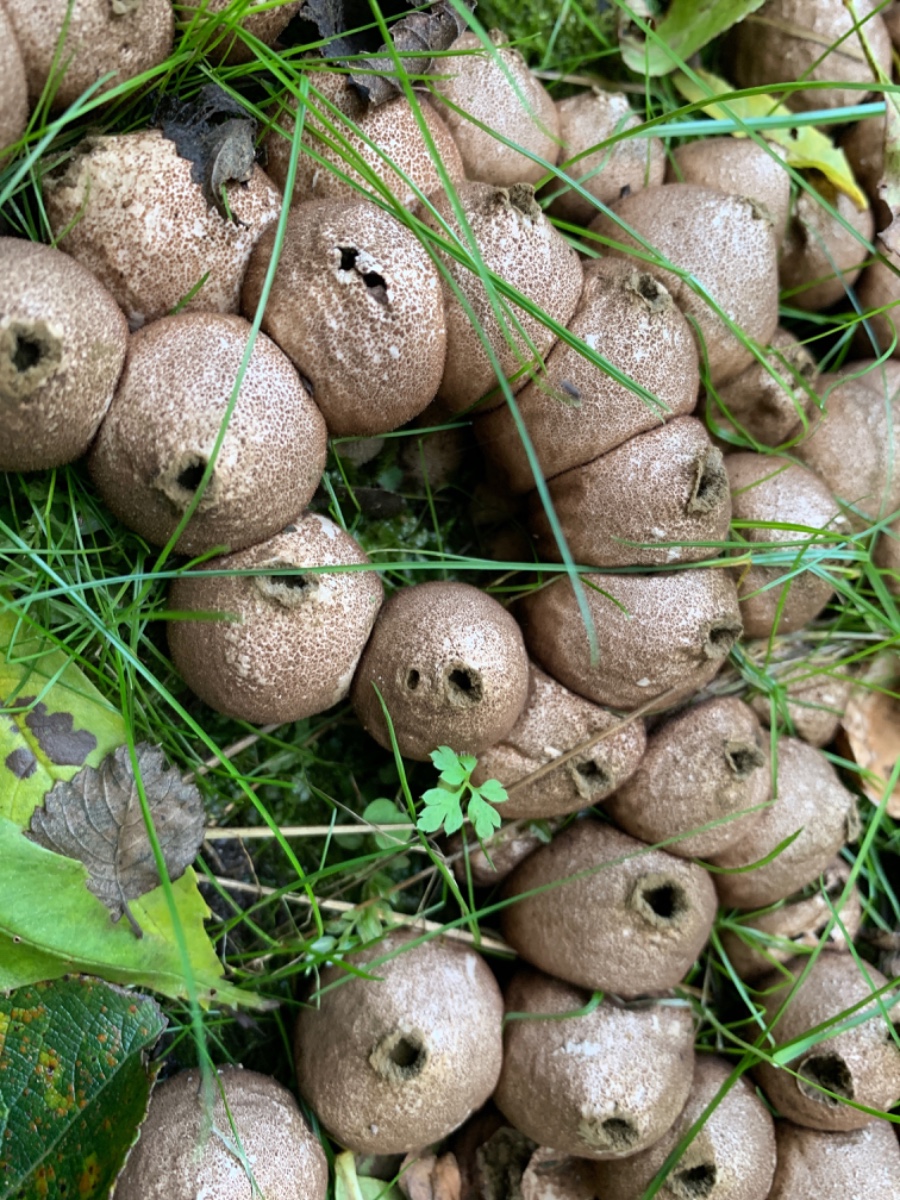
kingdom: Fungi
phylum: Basidiomycota
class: Agaricomycetes
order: Agaricales
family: Lycoperdaceae
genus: Apioperdon
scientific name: Apioperdon pyriforme
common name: pære-støvbold
